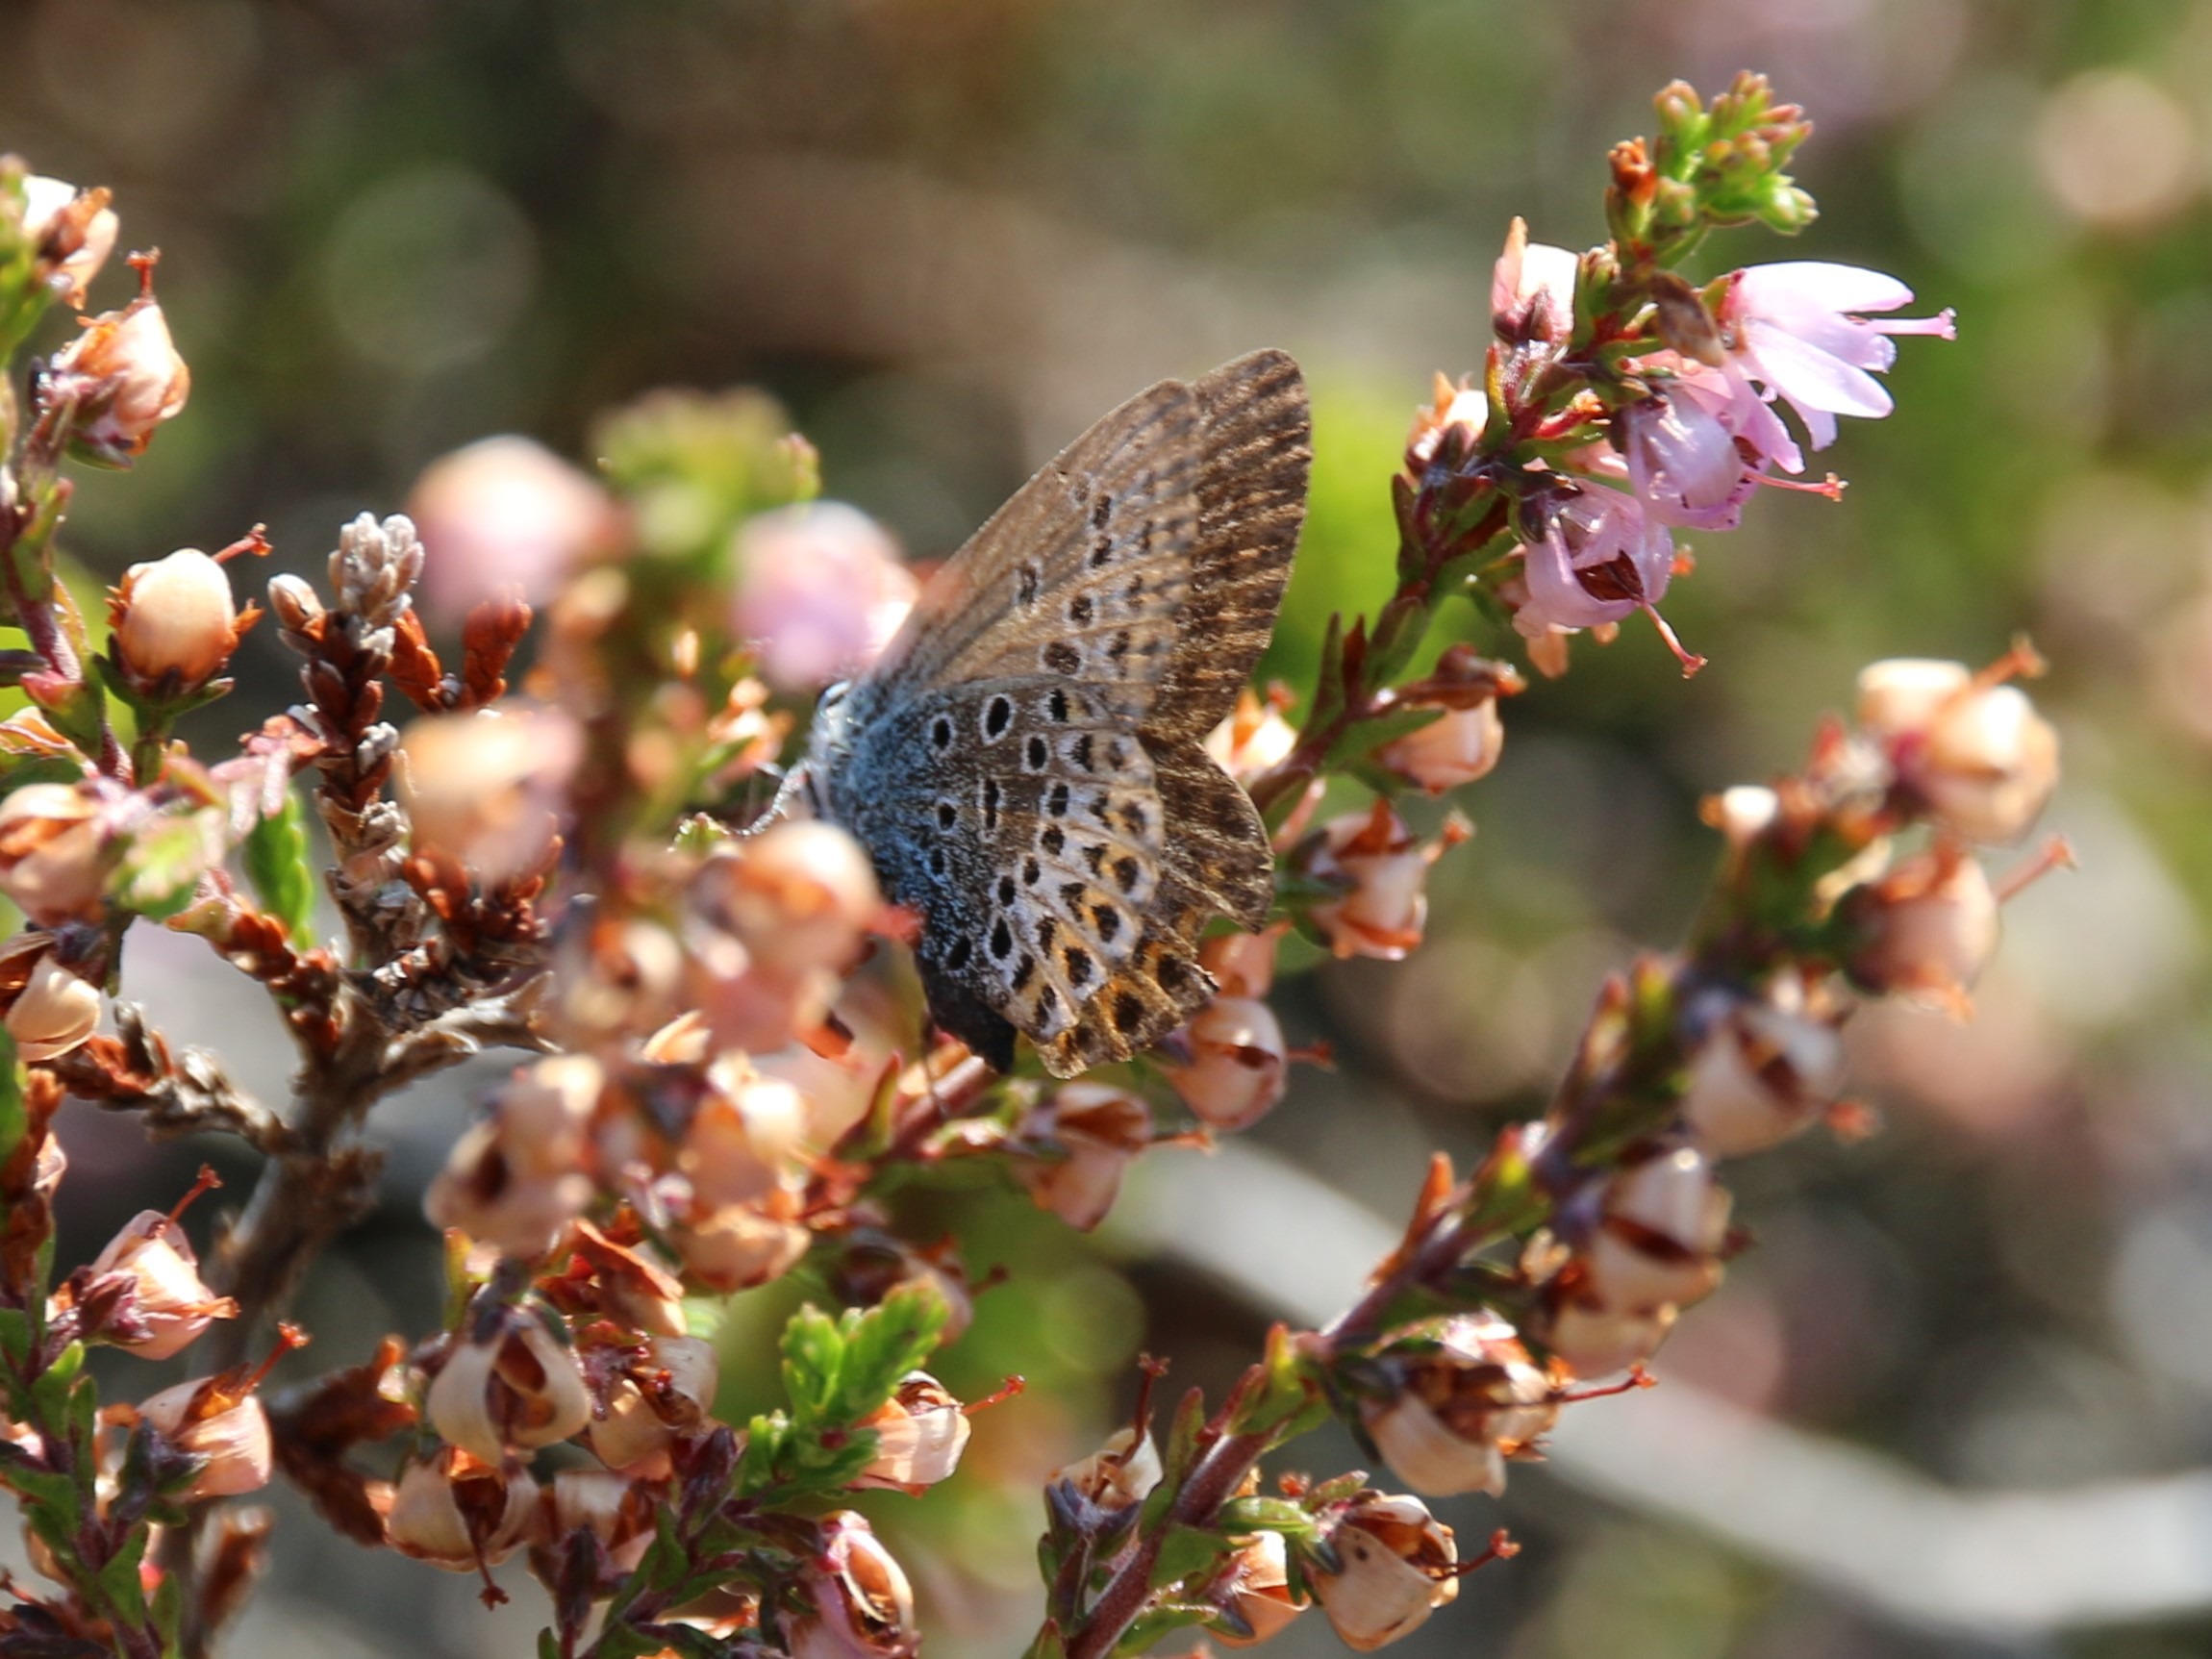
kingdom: Animalia
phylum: Arthropoda
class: Insecta
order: Lepidoptera
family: Lycaenidae
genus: Lycaeides
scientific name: Lycaeides idas
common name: Foranderlig blåfugl
